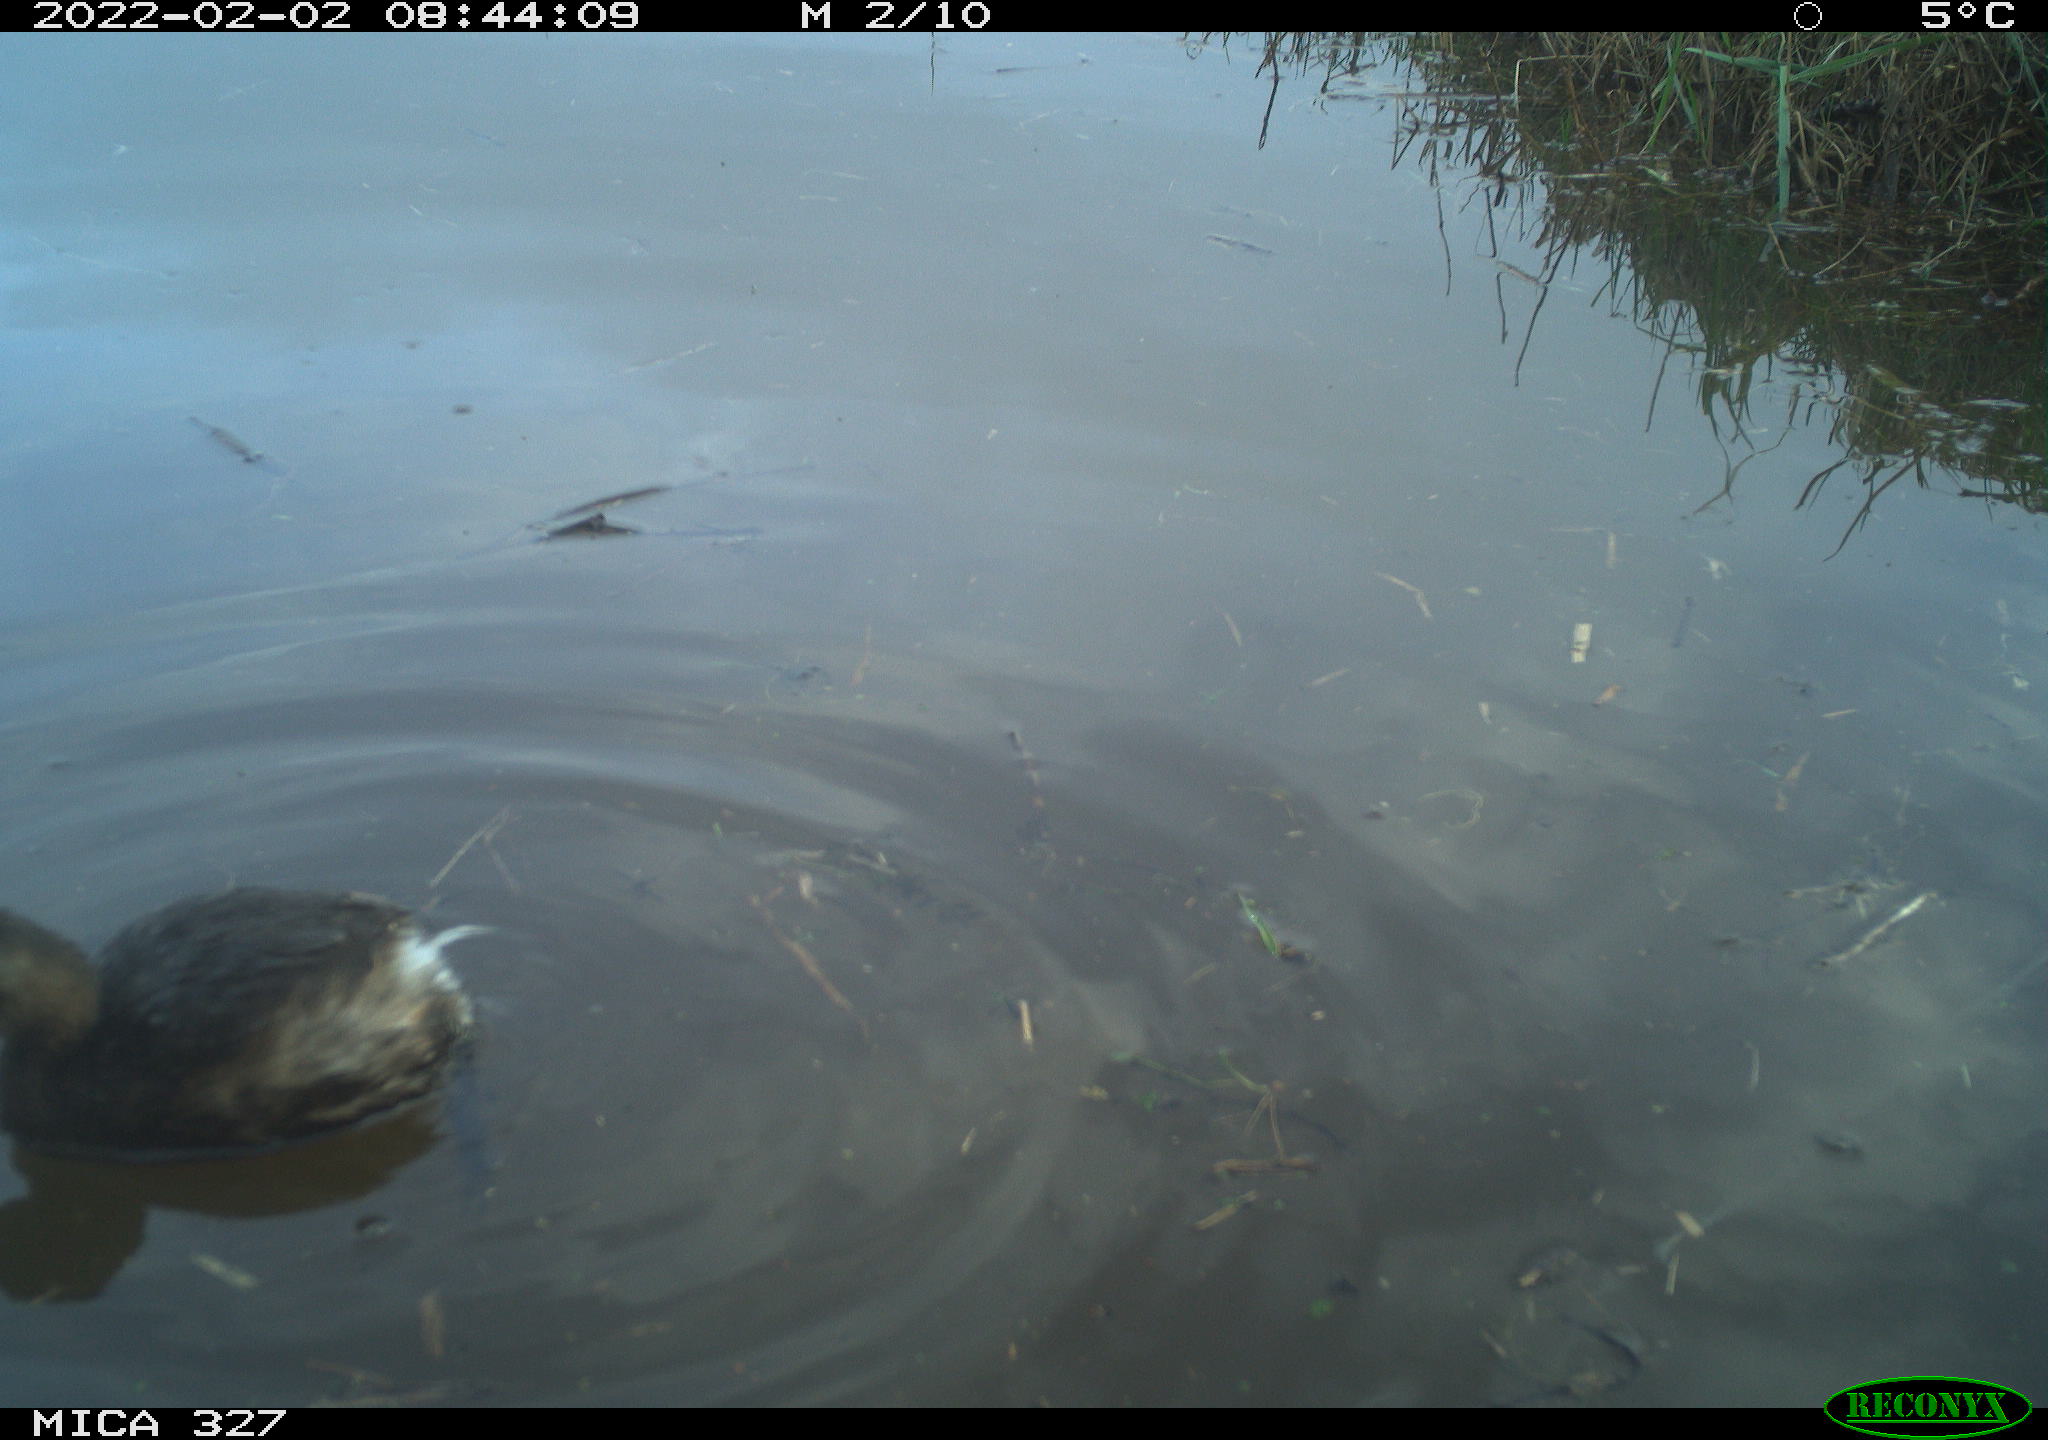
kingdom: Animalia
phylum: Chordata
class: Aves
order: Podicipediformes
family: Podicipedidae
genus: Tachybaptus
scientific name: Tachybaptus ruficollis
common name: Little grebe
